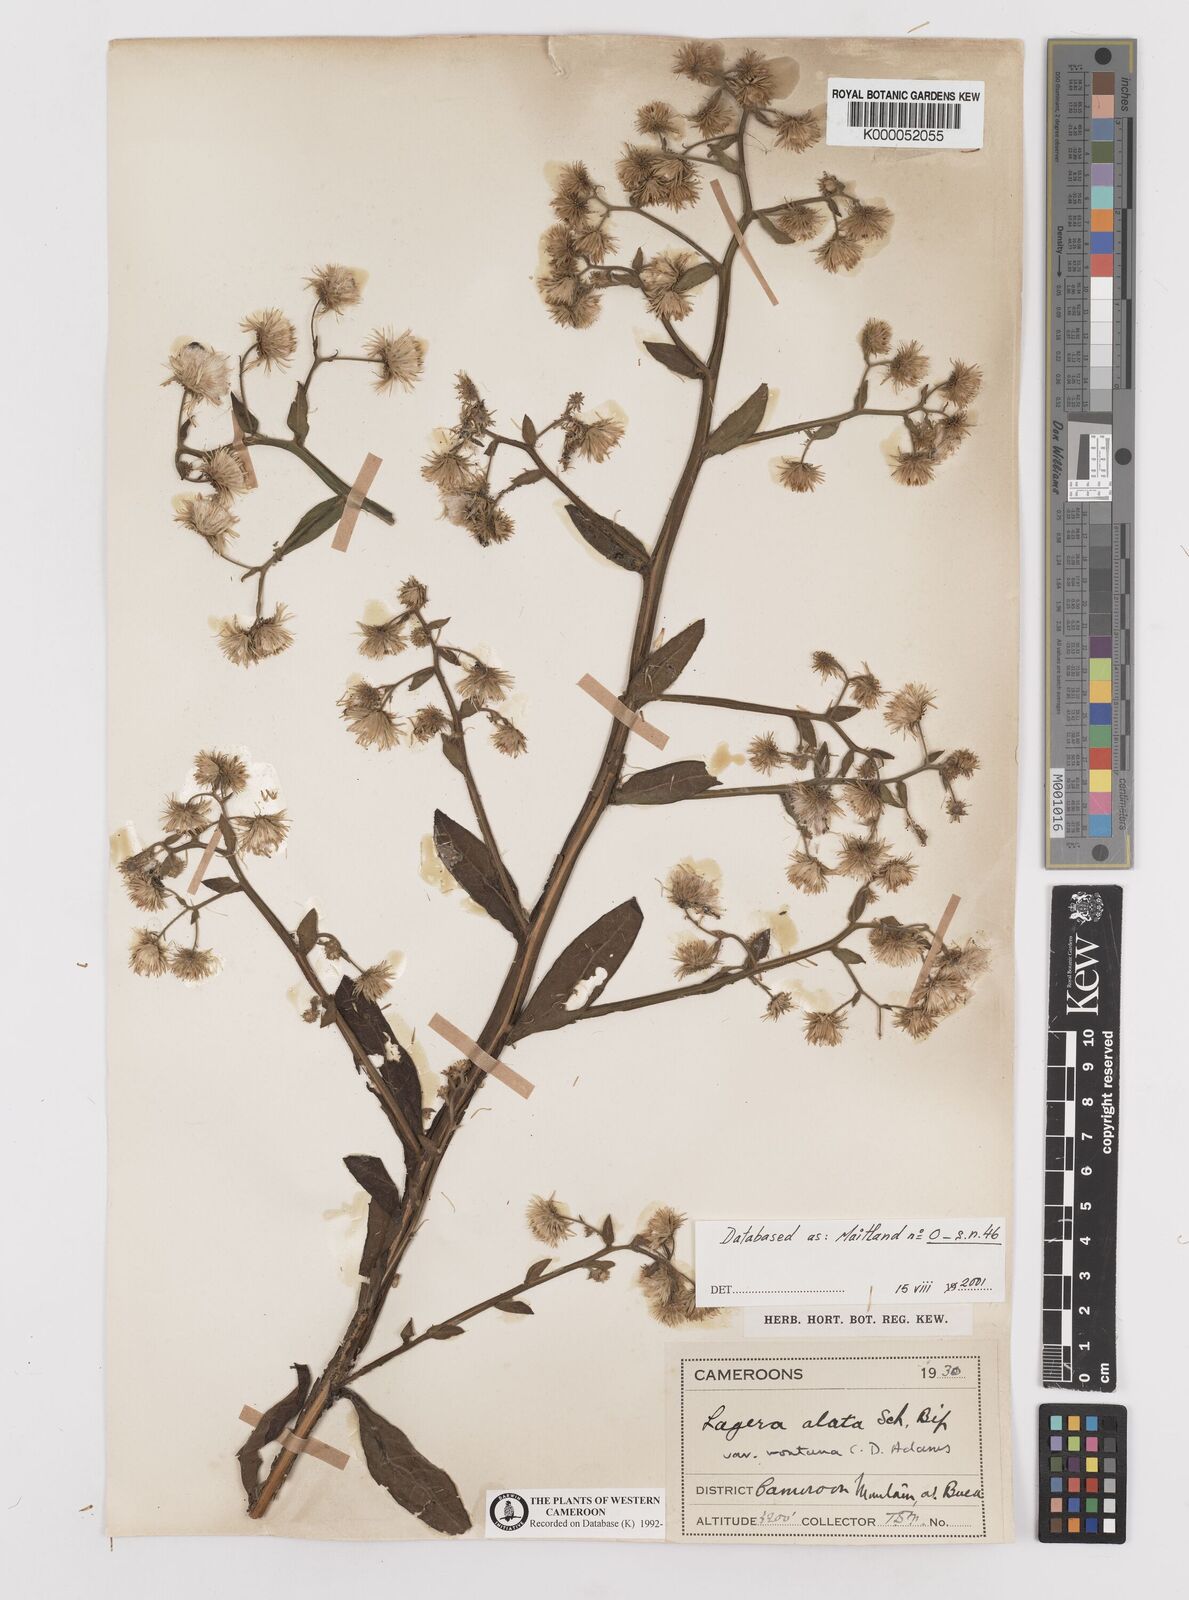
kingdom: Plantae
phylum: Tracheophyta
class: Magnoliopsida
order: Asterales
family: Asteraceae
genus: Laggera
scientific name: Laggera crispata
